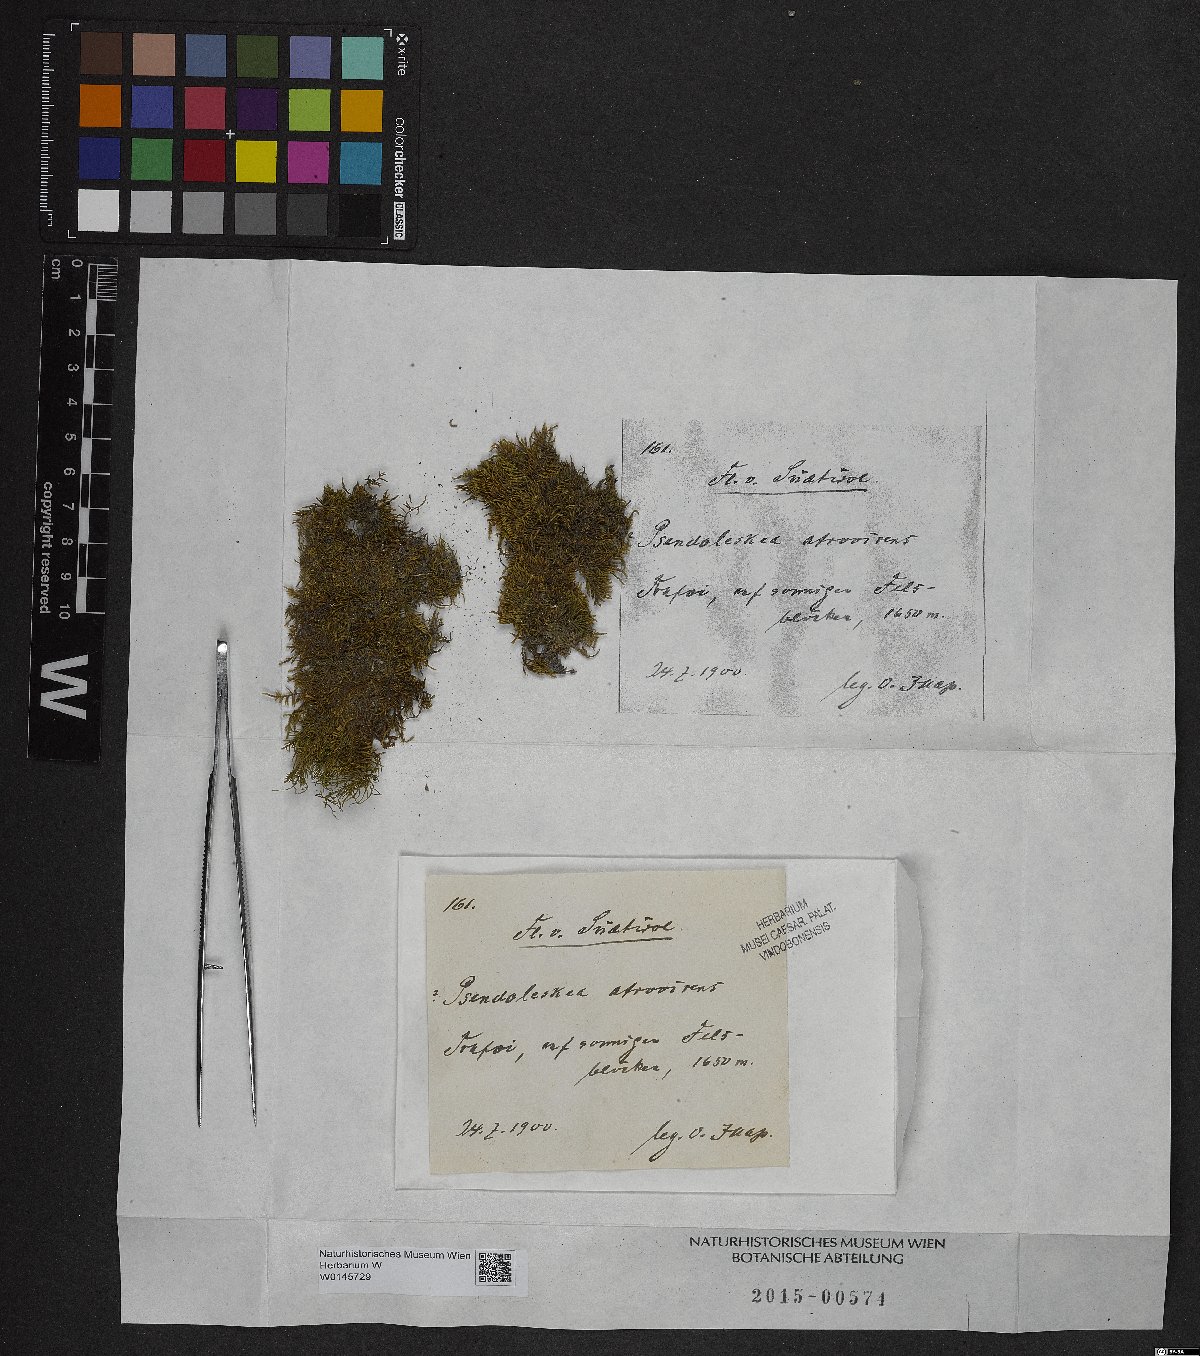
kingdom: Plantae
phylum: Bryophyta
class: Bryopsida
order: Hypnales
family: Pseudoleskeaceae
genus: Lescuraea
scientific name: Lescuraea incurvata
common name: Brown mountain leskea
